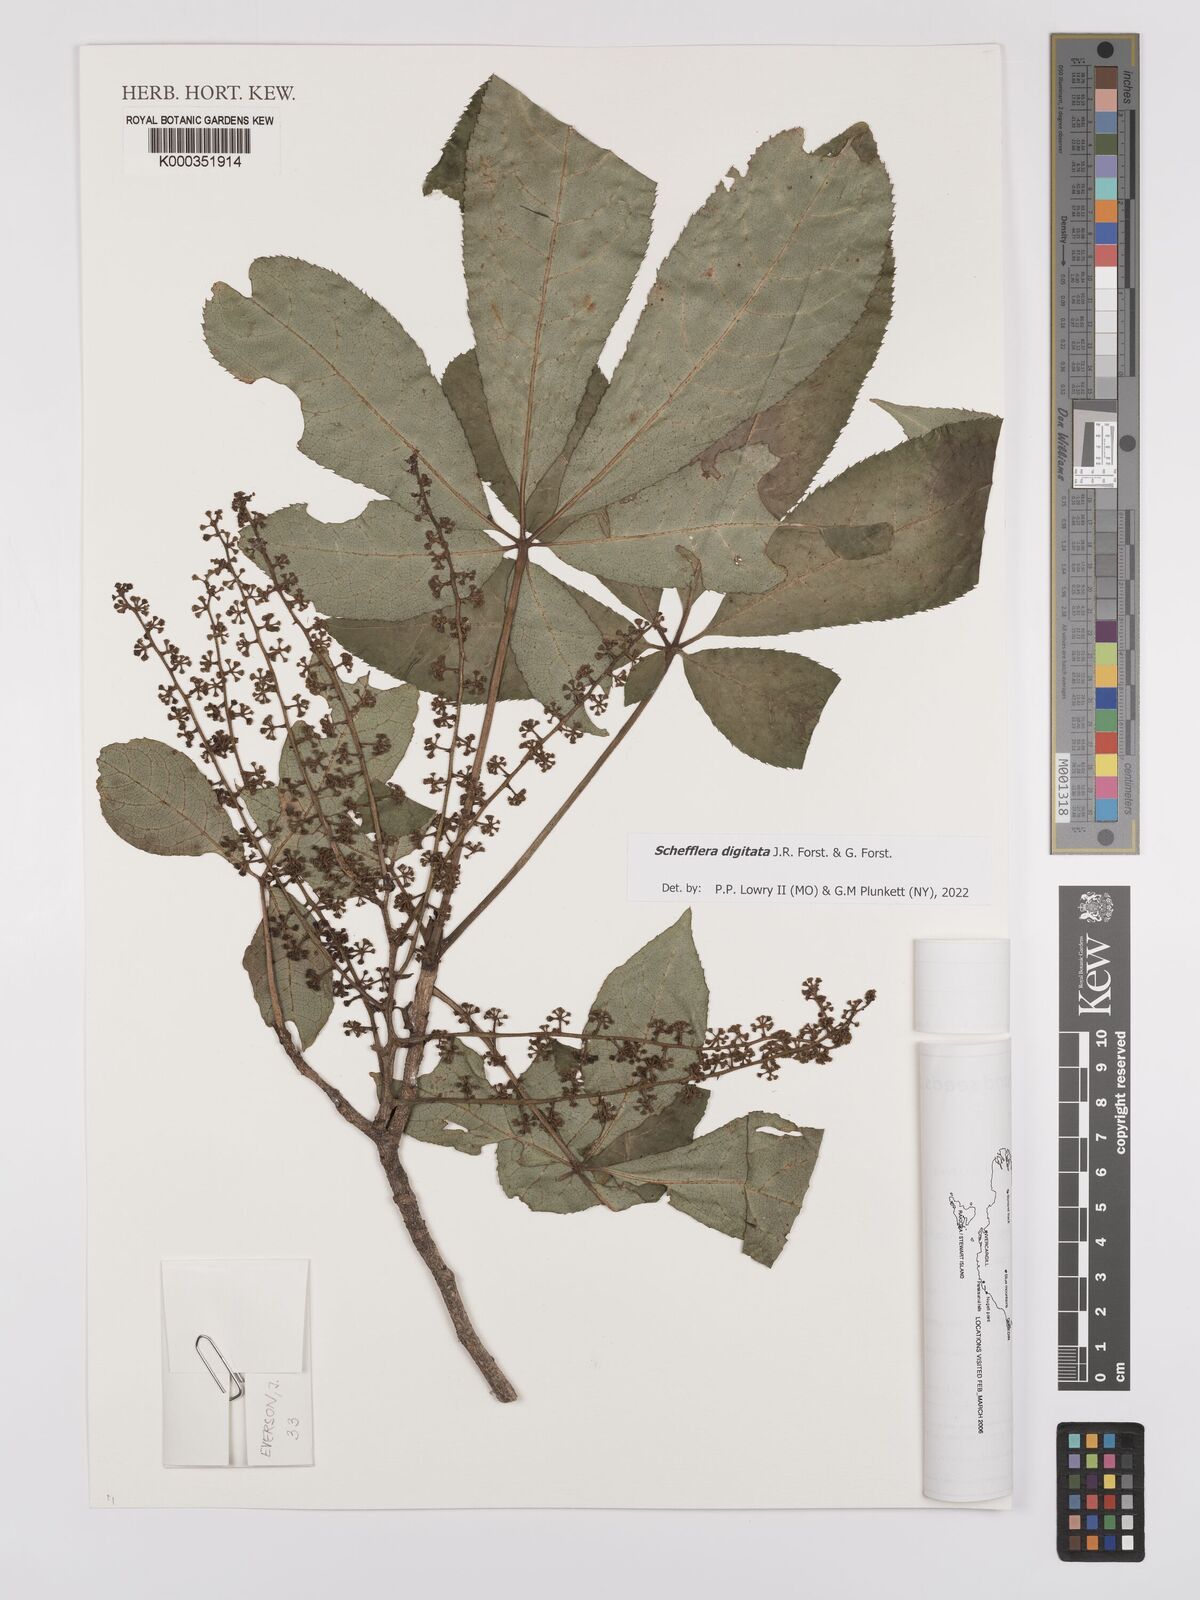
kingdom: Plantae
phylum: Tracheophyta
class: Magnoliopsida
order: Apiales
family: Araliaceae
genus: Schefflera
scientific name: Schefflera digitata
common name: Pate
